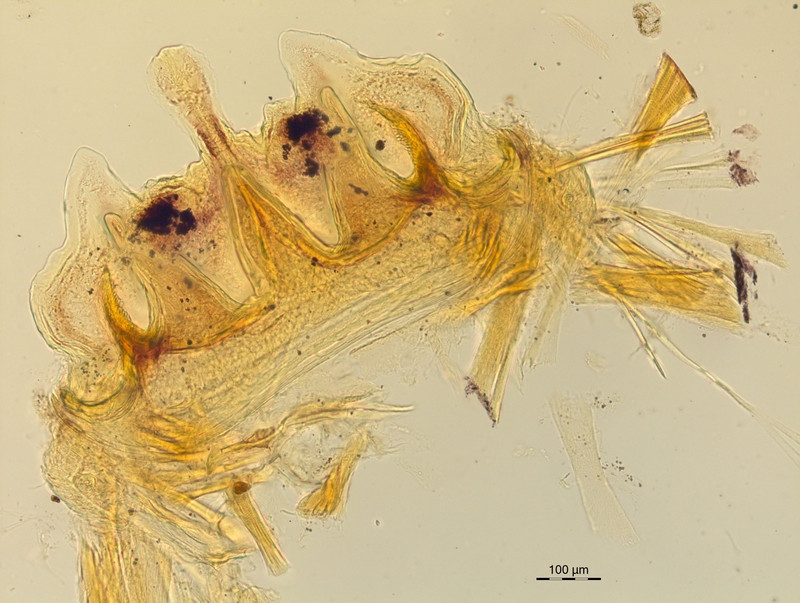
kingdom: Animalia
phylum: Arthropoda
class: Diplopoda
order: Chordeumatida
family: Craspedosomatidae
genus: Craspedosoma
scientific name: Craspedosoma rawlinsii
